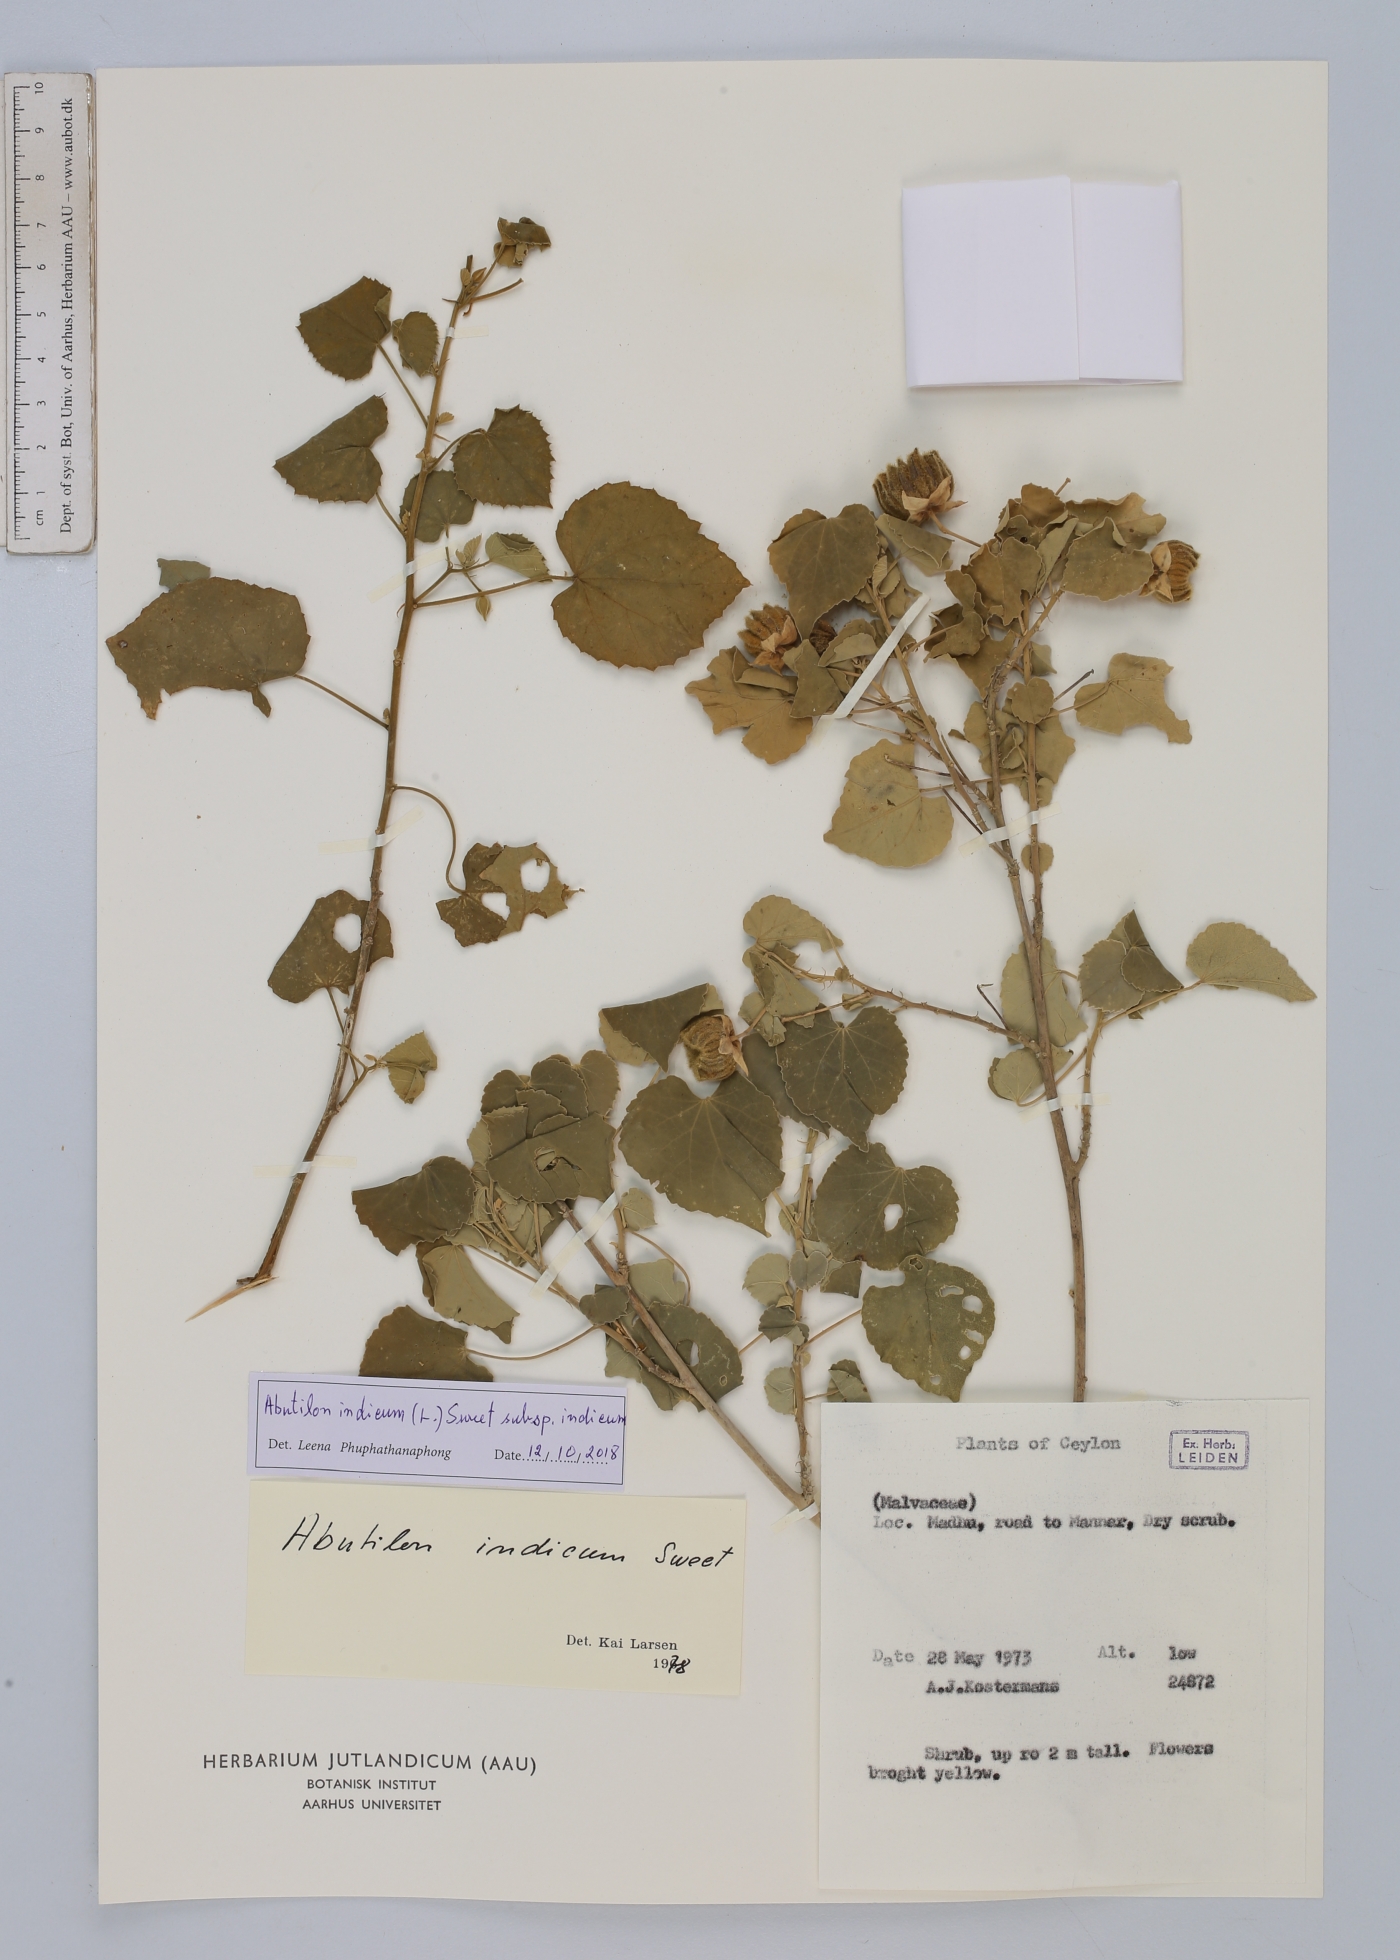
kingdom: Plantae
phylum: Tracheophyta
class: Magnoliopsida
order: Malvales
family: Malvaceae
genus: Abutilon
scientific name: Abutilon indicum
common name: Indian abutilon
